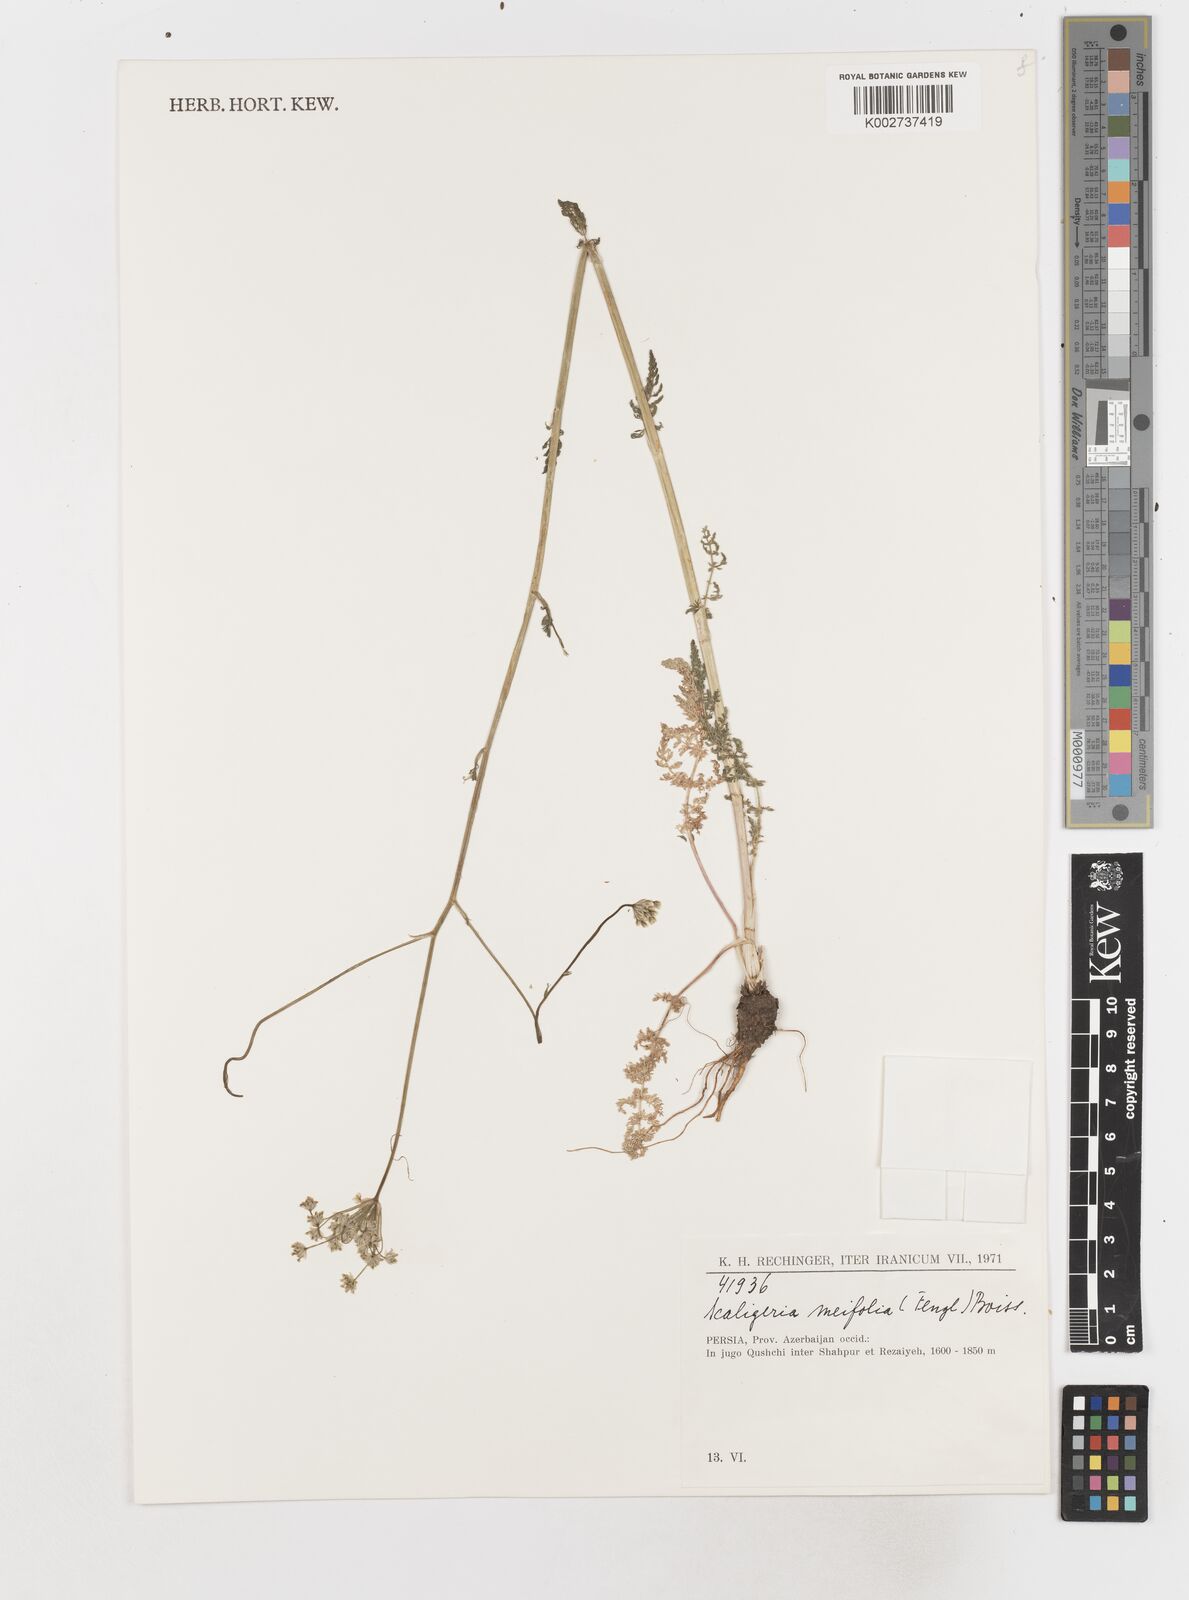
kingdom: Plantae
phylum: Tracheophyta
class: Magnoliopsida
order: Apiales
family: Apiaceae
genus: Elaeosticta
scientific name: Elaeosticta meifolia
